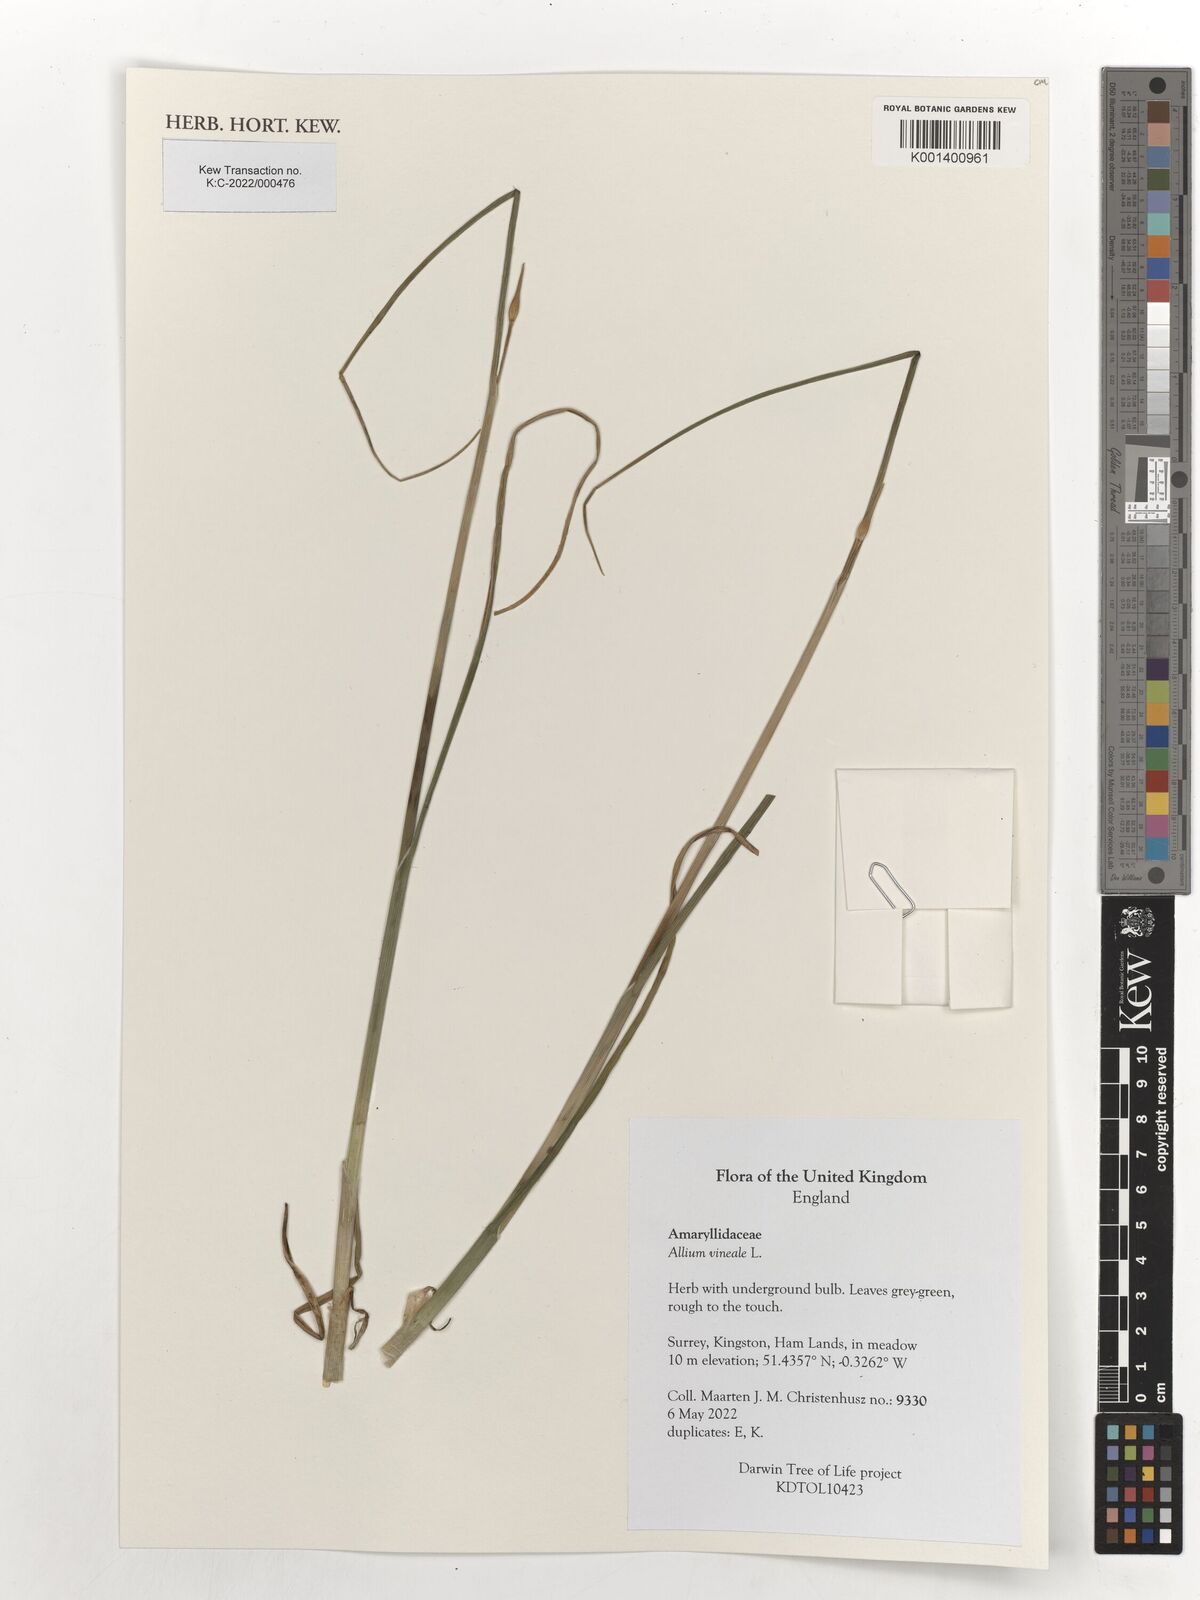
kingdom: Plantae
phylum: Tracheophyta
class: Liliopsida
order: Asparagales
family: Amaryllidaceae
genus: Allium
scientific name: Allium vineale
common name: Crow garlic
